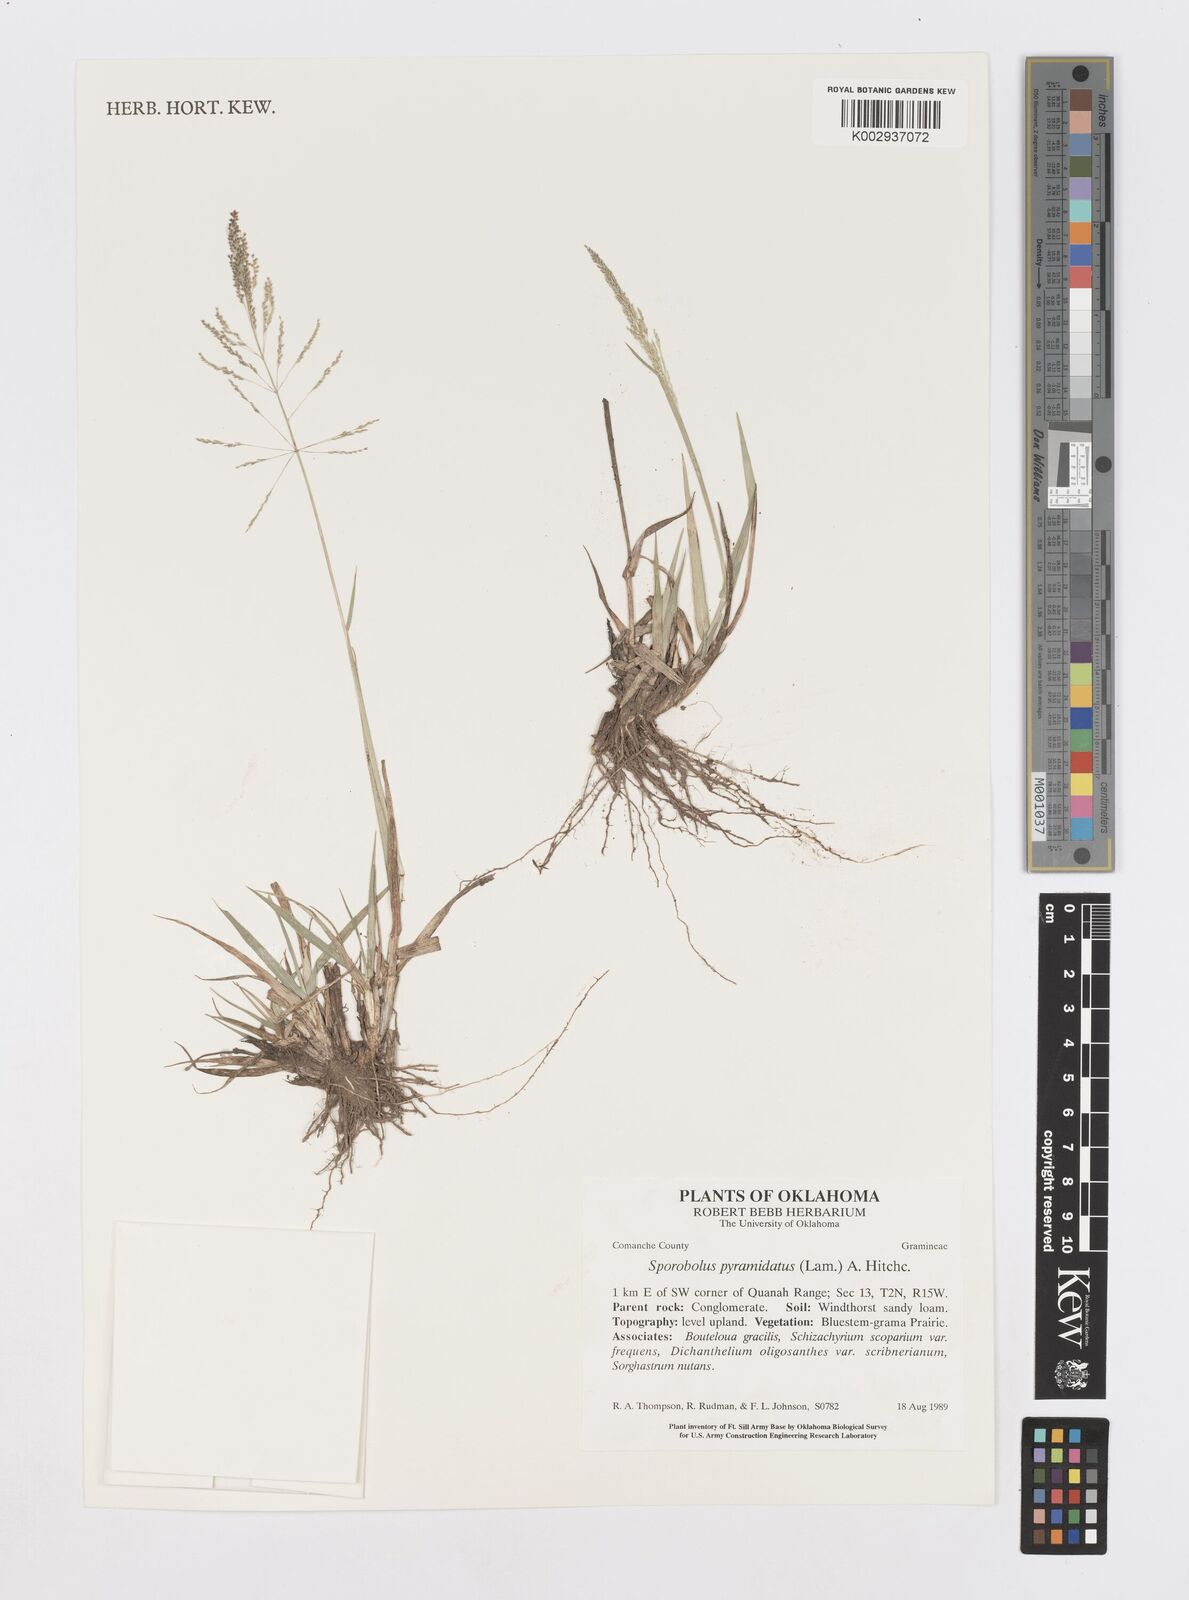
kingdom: Plantae
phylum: Tracheophyta
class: Liliopsida
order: Poales
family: Poaceae
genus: Sporobolus
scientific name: Sporobolus pyramidatus
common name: Whorled dropseed
